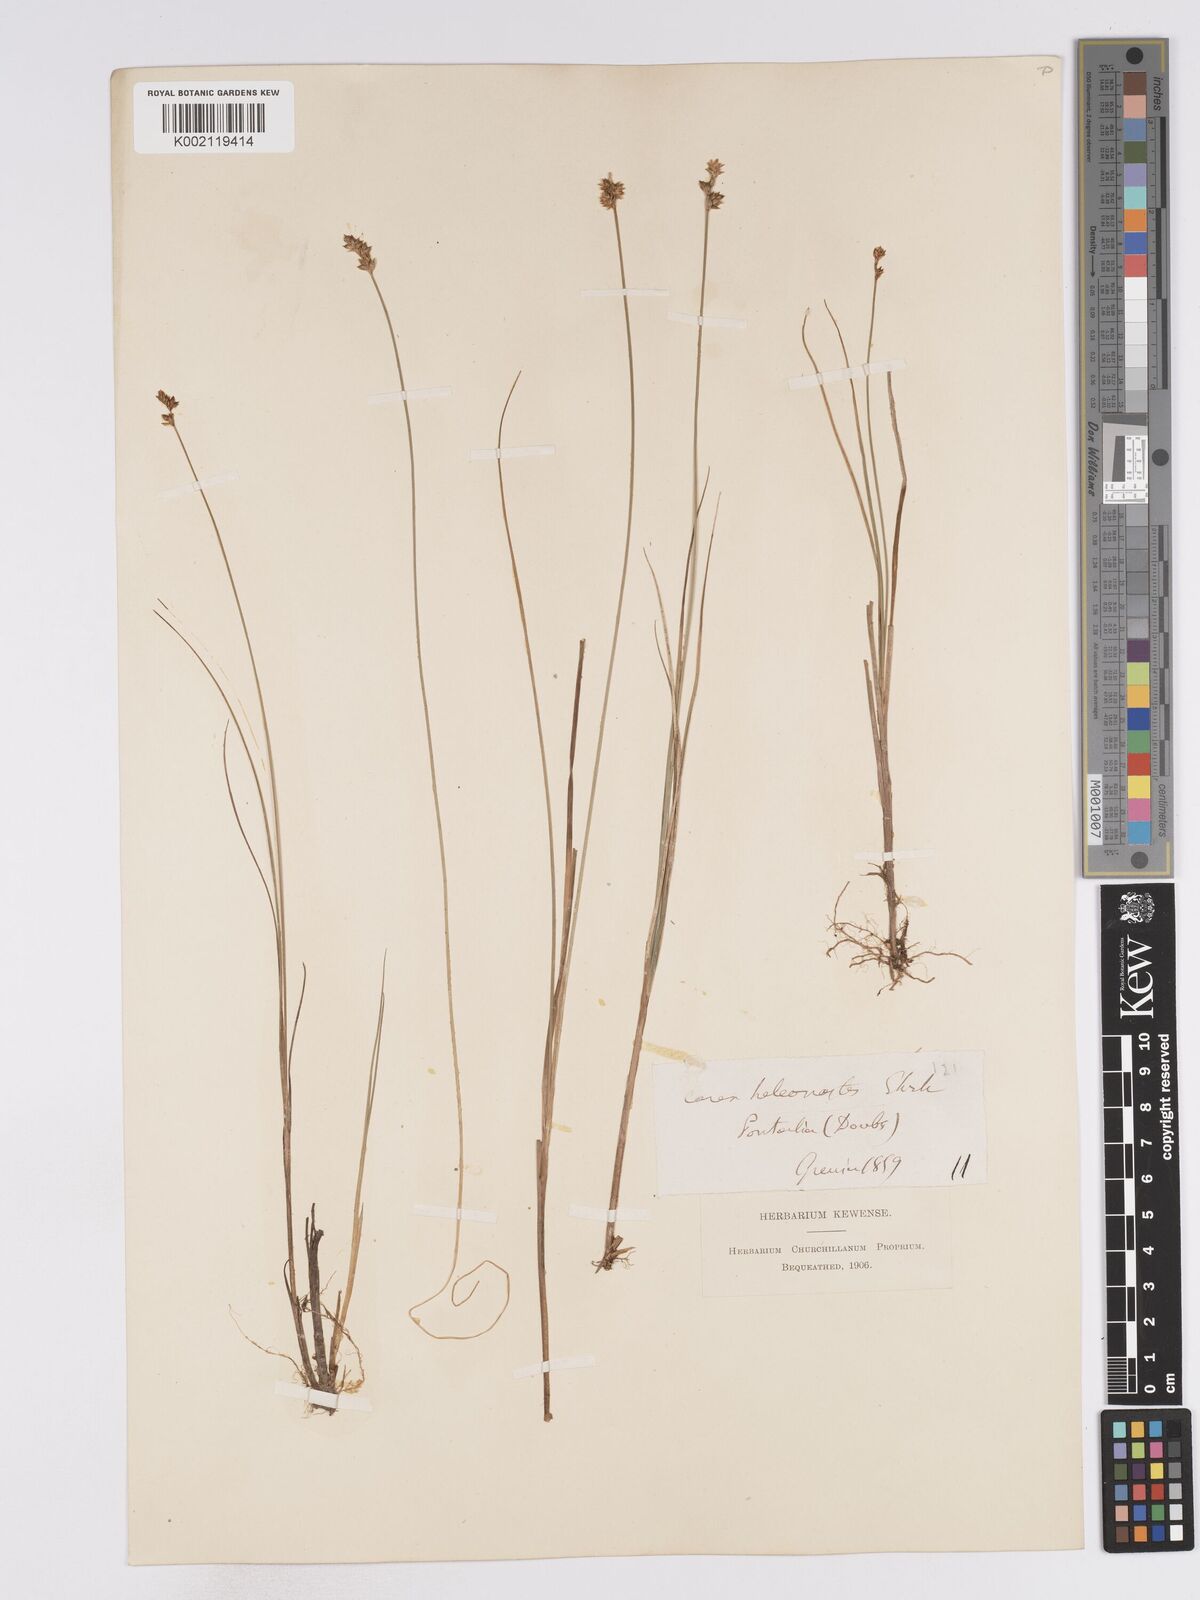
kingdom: Plantae
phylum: Tracheophyta
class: Liliopsida
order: Poales
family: Cyperaceae
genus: Carex
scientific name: Carex heleonastes
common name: Hudson bay sedge
